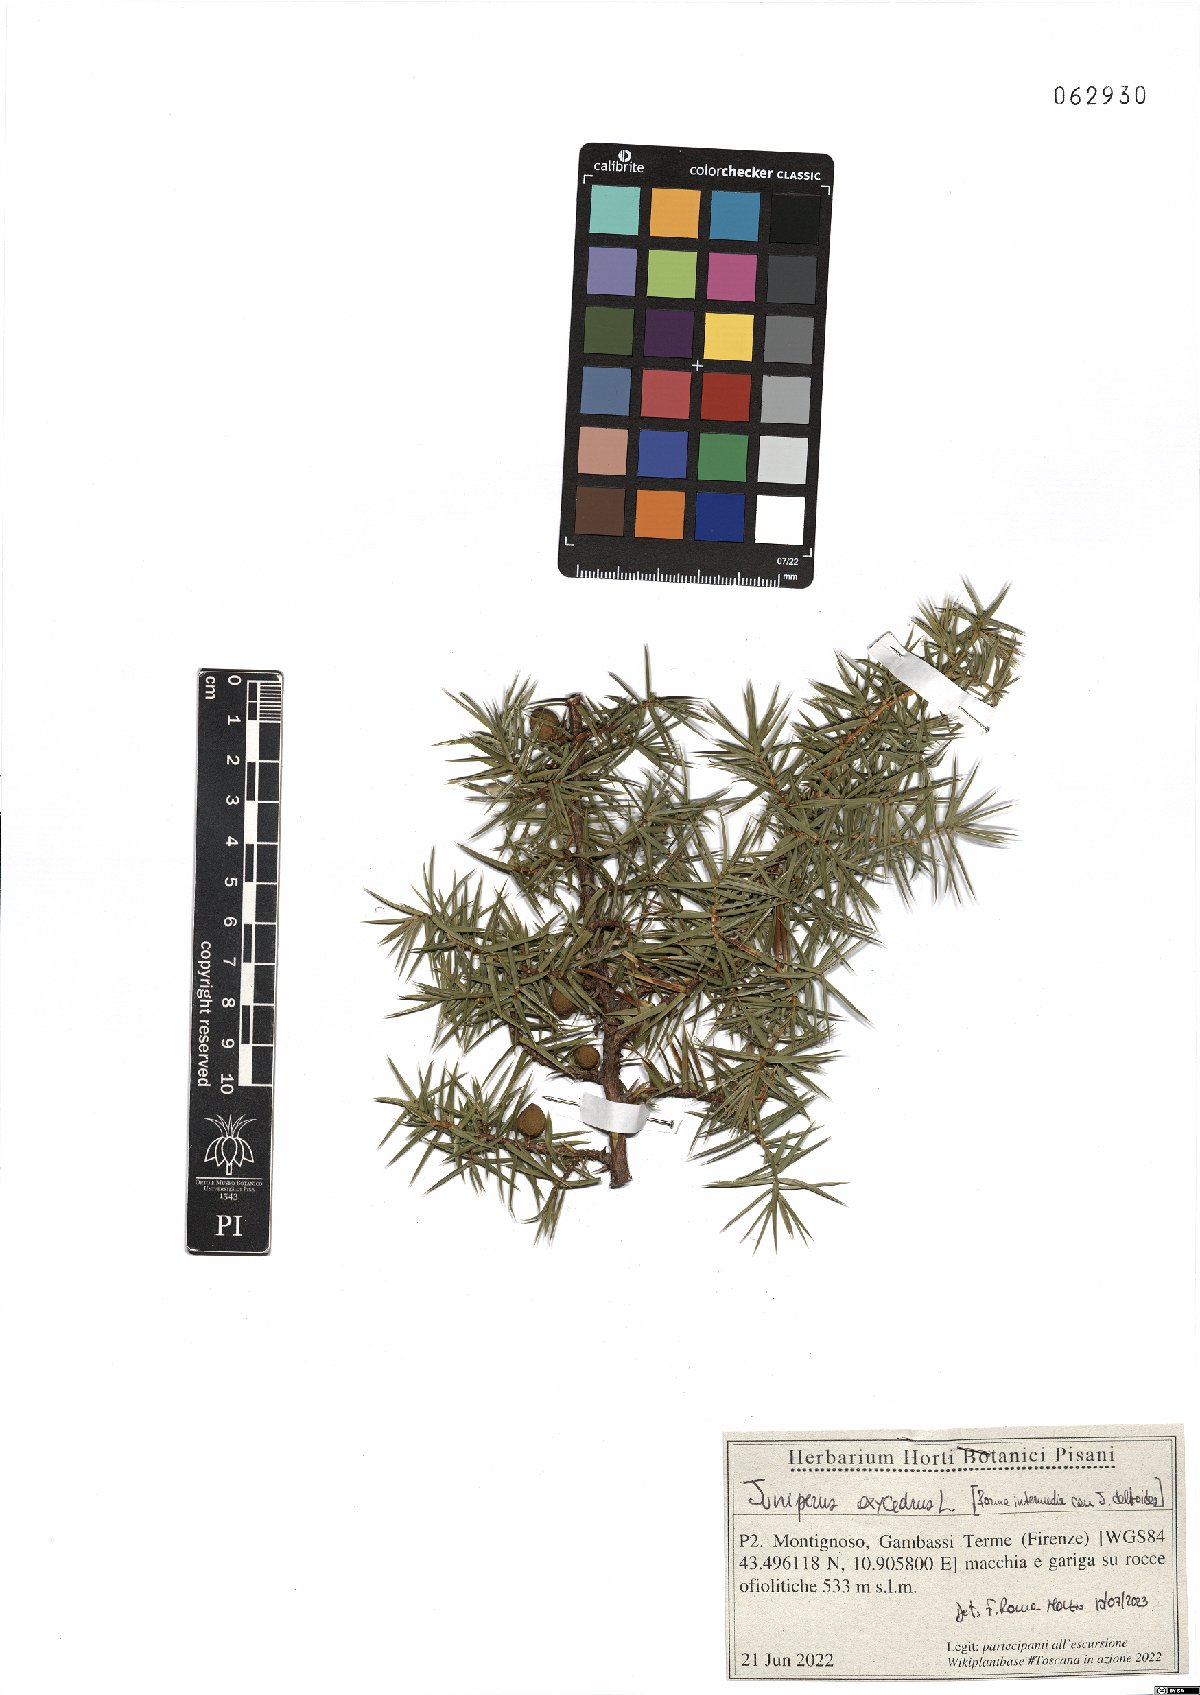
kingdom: Plantae
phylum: Tracheophyta
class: Pinopsida
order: Pinales
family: Cupressaceae
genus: Juniperus
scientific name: Juniperus oxycedrus
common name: Prickly juniper
